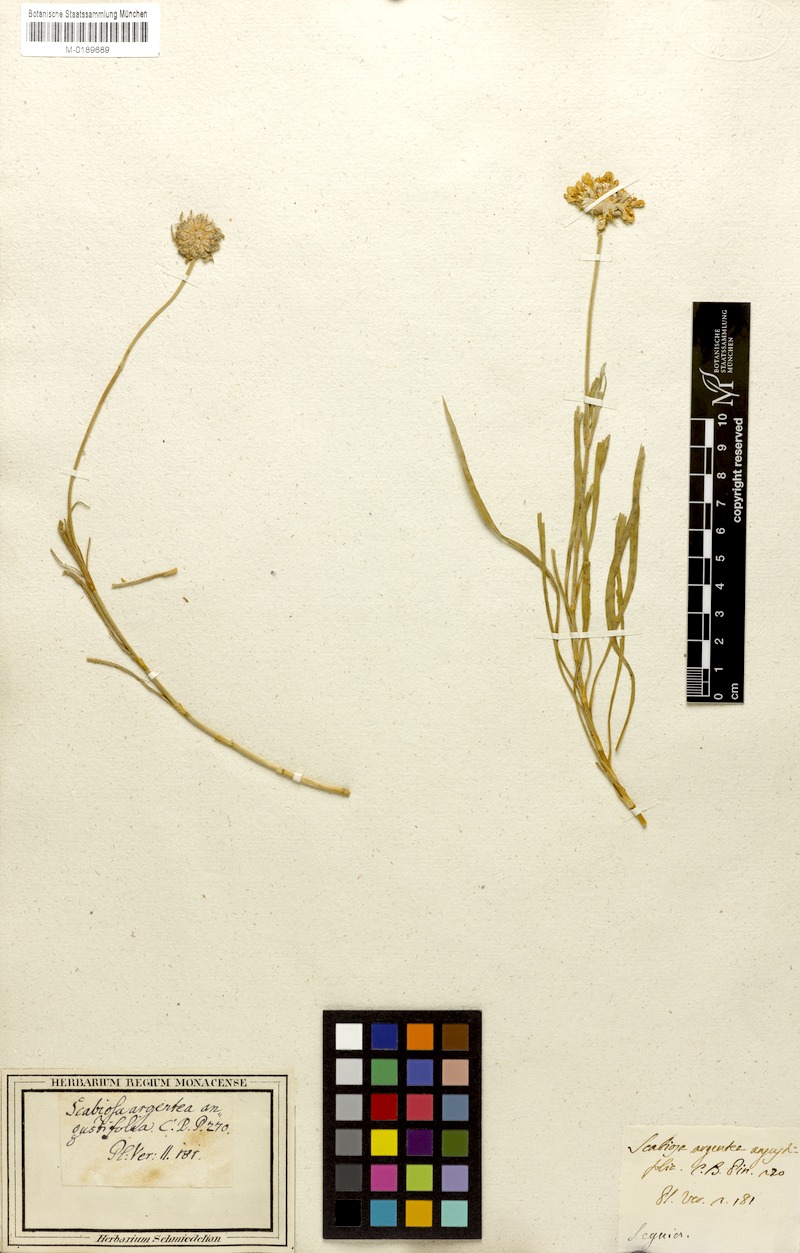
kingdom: Plantae
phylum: Tracheophyta
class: Magnoliopsida
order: Dipsacales
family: Caprifoliaceae
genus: Lomelosia
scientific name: Lomelosia graminifolia
